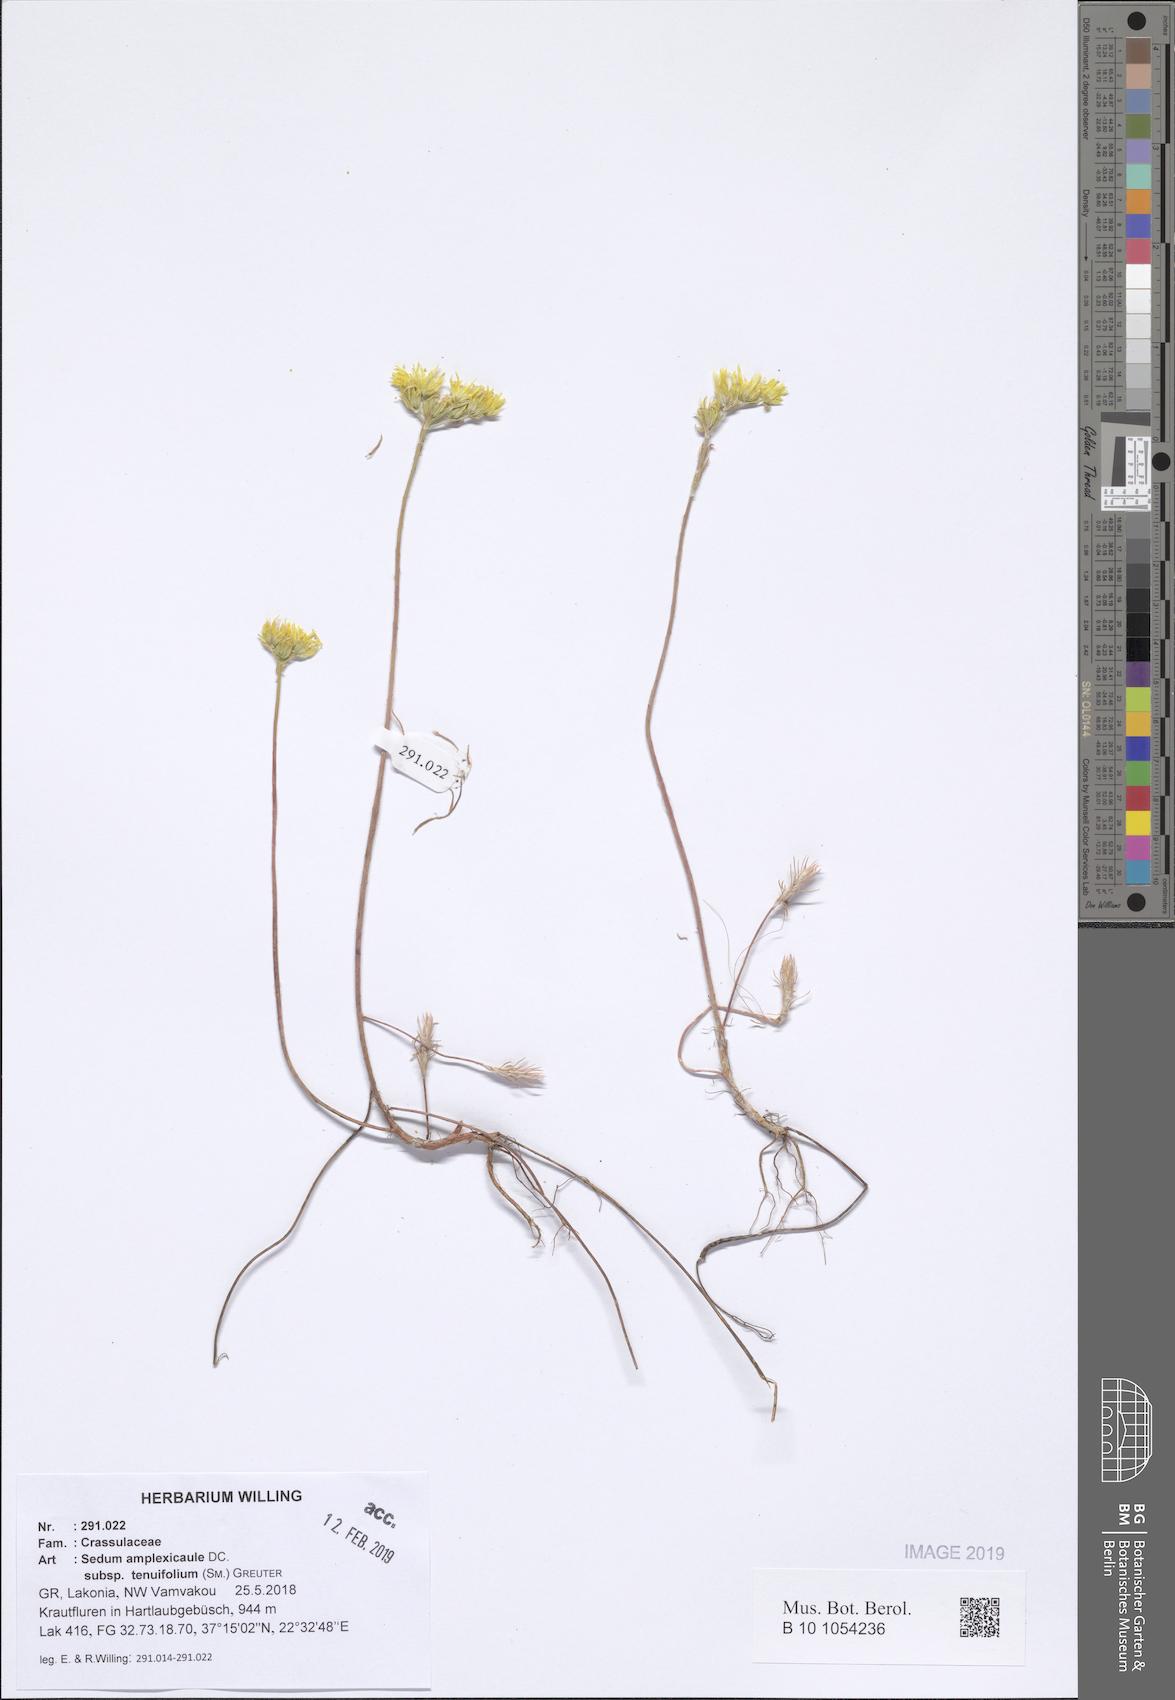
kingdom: Plantae
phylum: Tracheophyta
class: Magnoliopsida
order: Saxifragales
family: Crassulaceae
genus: Petrosedum
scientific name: Petrosedum tenuifolium
